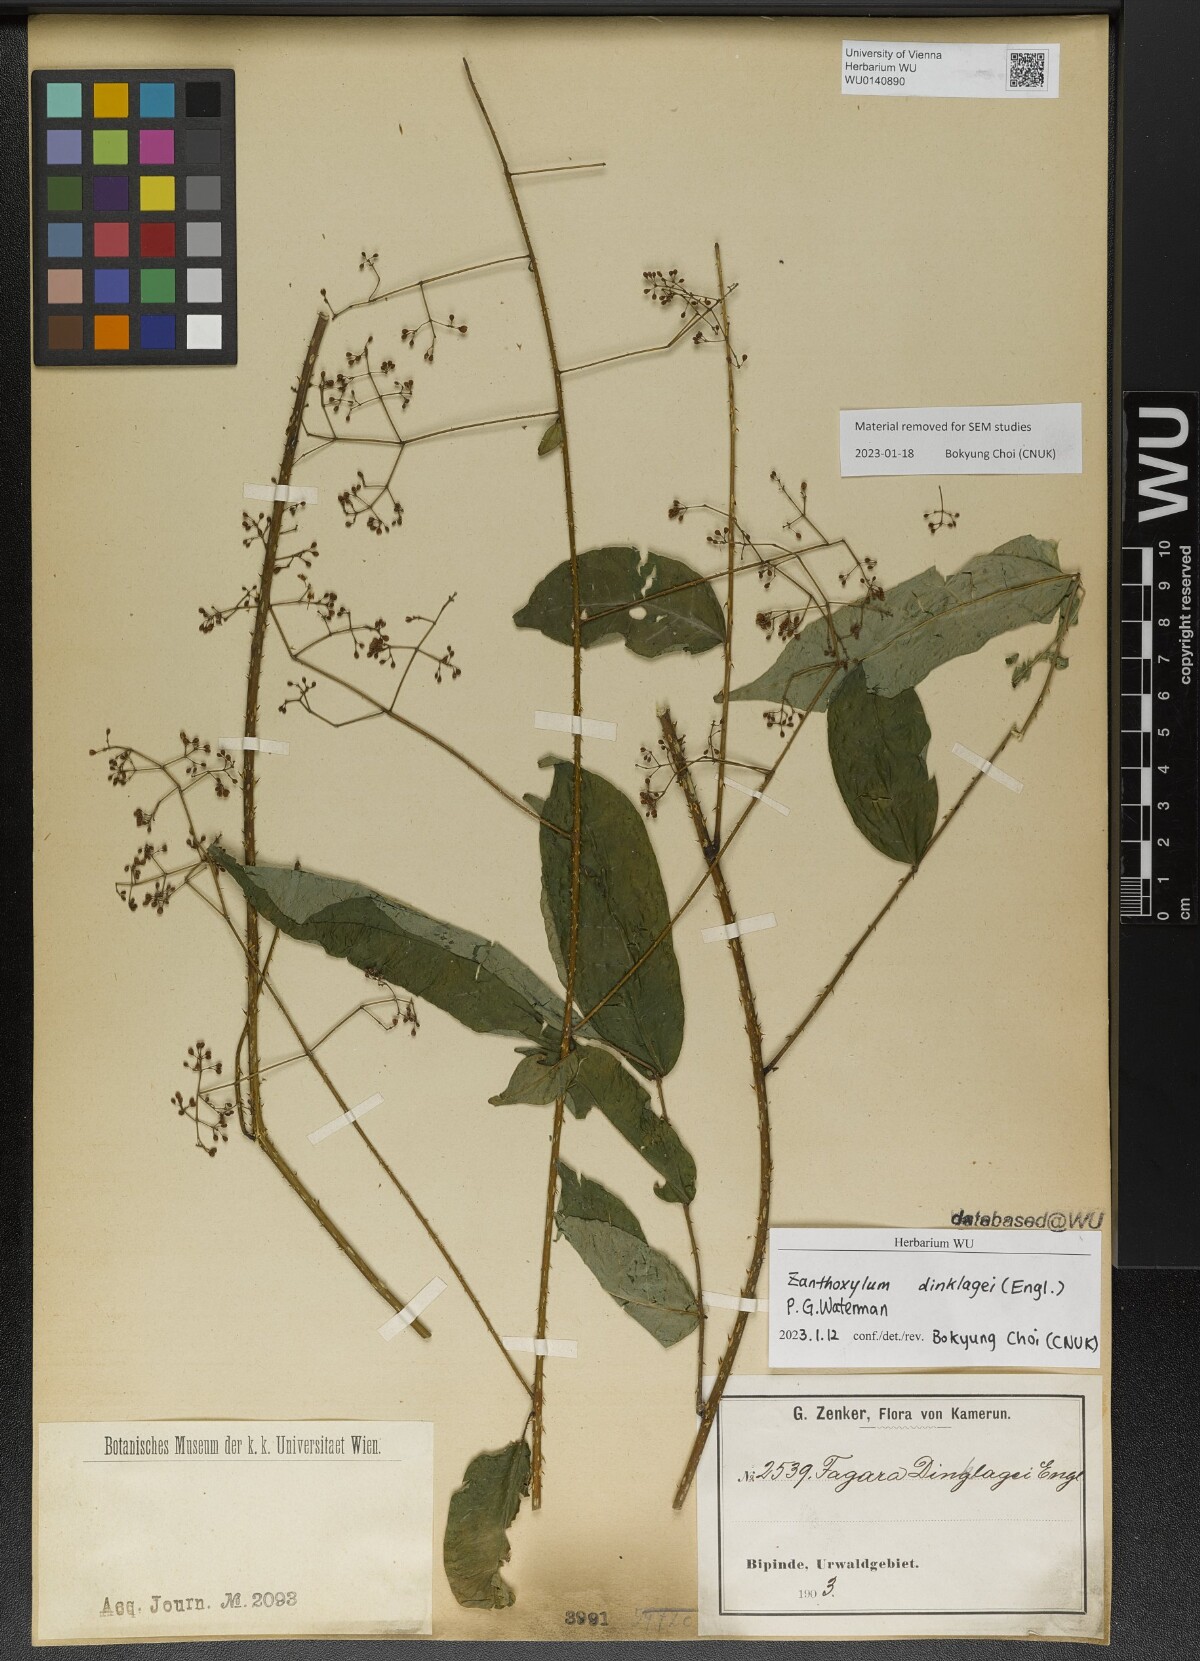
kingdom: Plantae
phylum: Tracheophyta
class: Magnoliopsida
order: Sapindales
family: Rutaceae
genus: Zanthoxylum
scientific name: Zanthoxylum dinklagei
